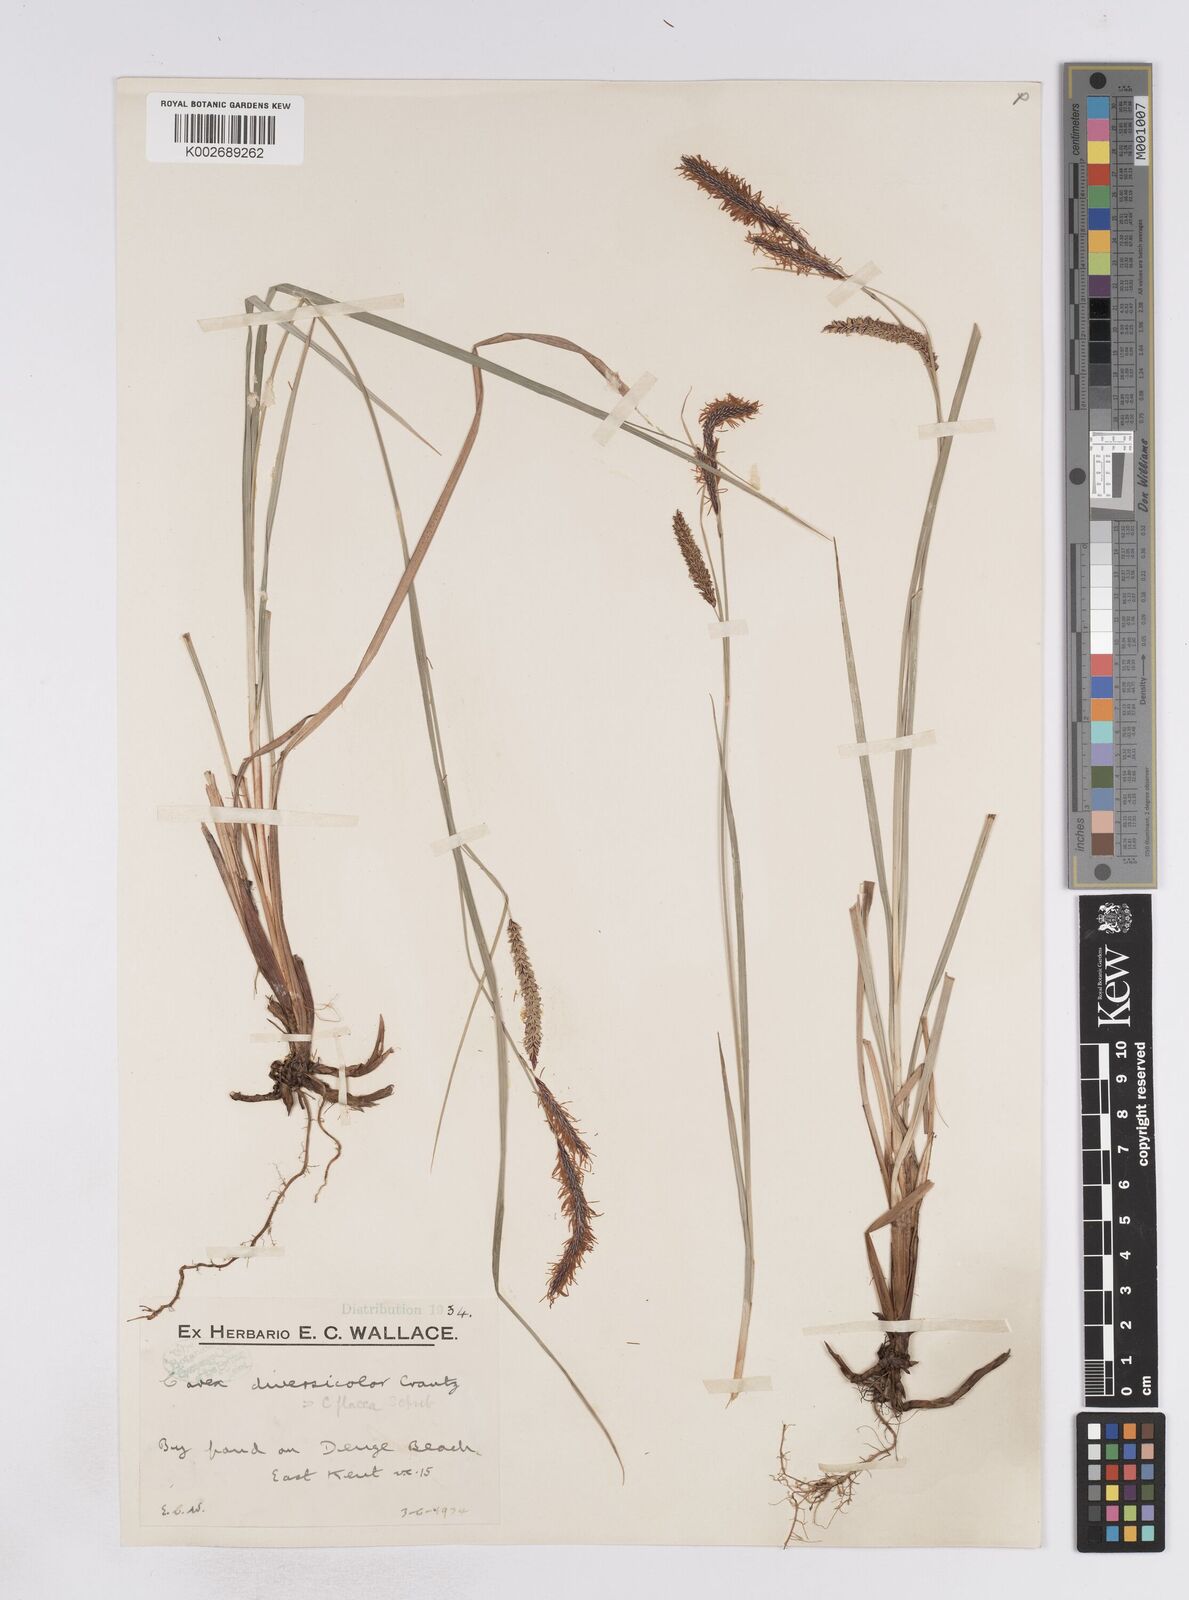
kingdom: Plantae
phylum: Tracheophyta
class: Liliopsida
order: Poales
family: Cyperaceae
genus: Carex
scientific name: Carex flacca
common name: Glaucous sedge
